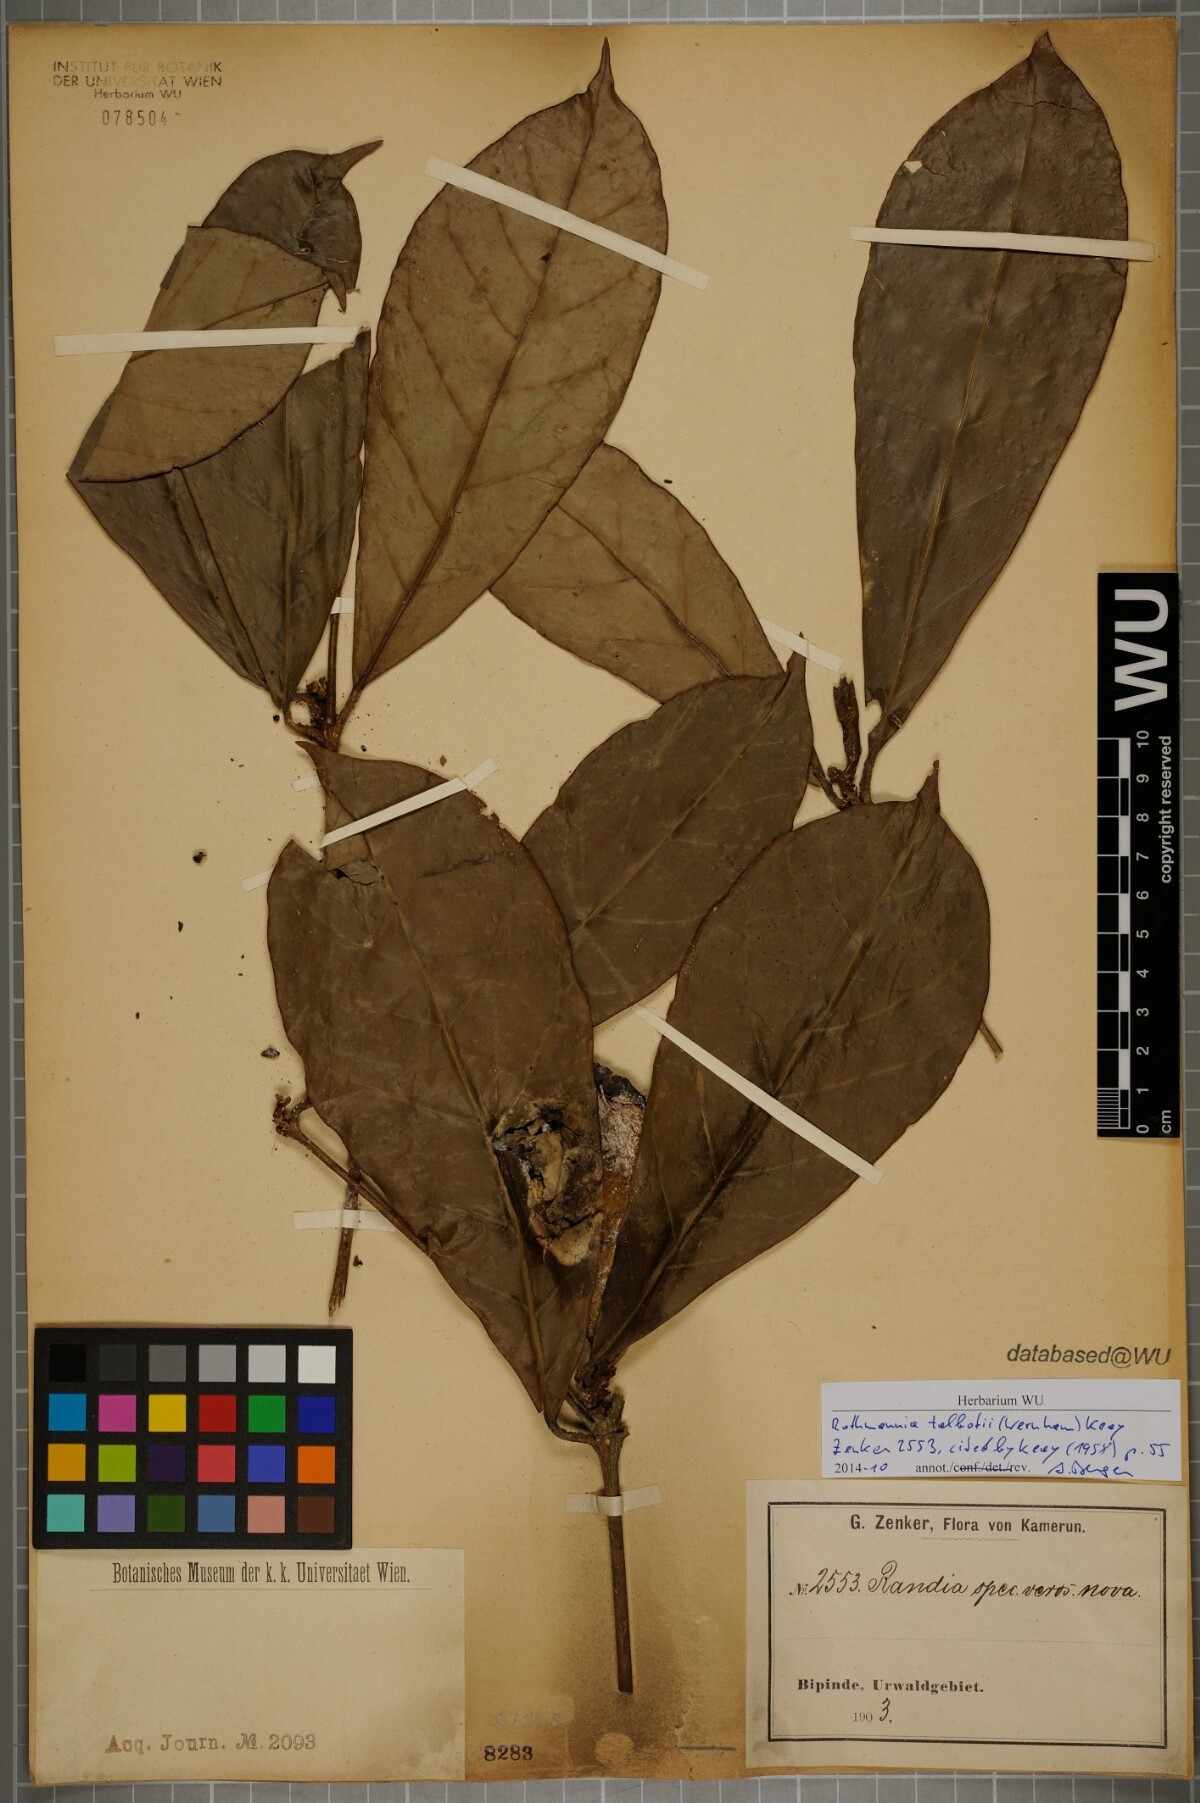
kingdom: Plantae
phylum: Tracheophyta
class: Magnoliopsida
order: Gentianales
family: Rubiaceae
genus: Rothmannia
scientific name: Rothmannia talbotii
